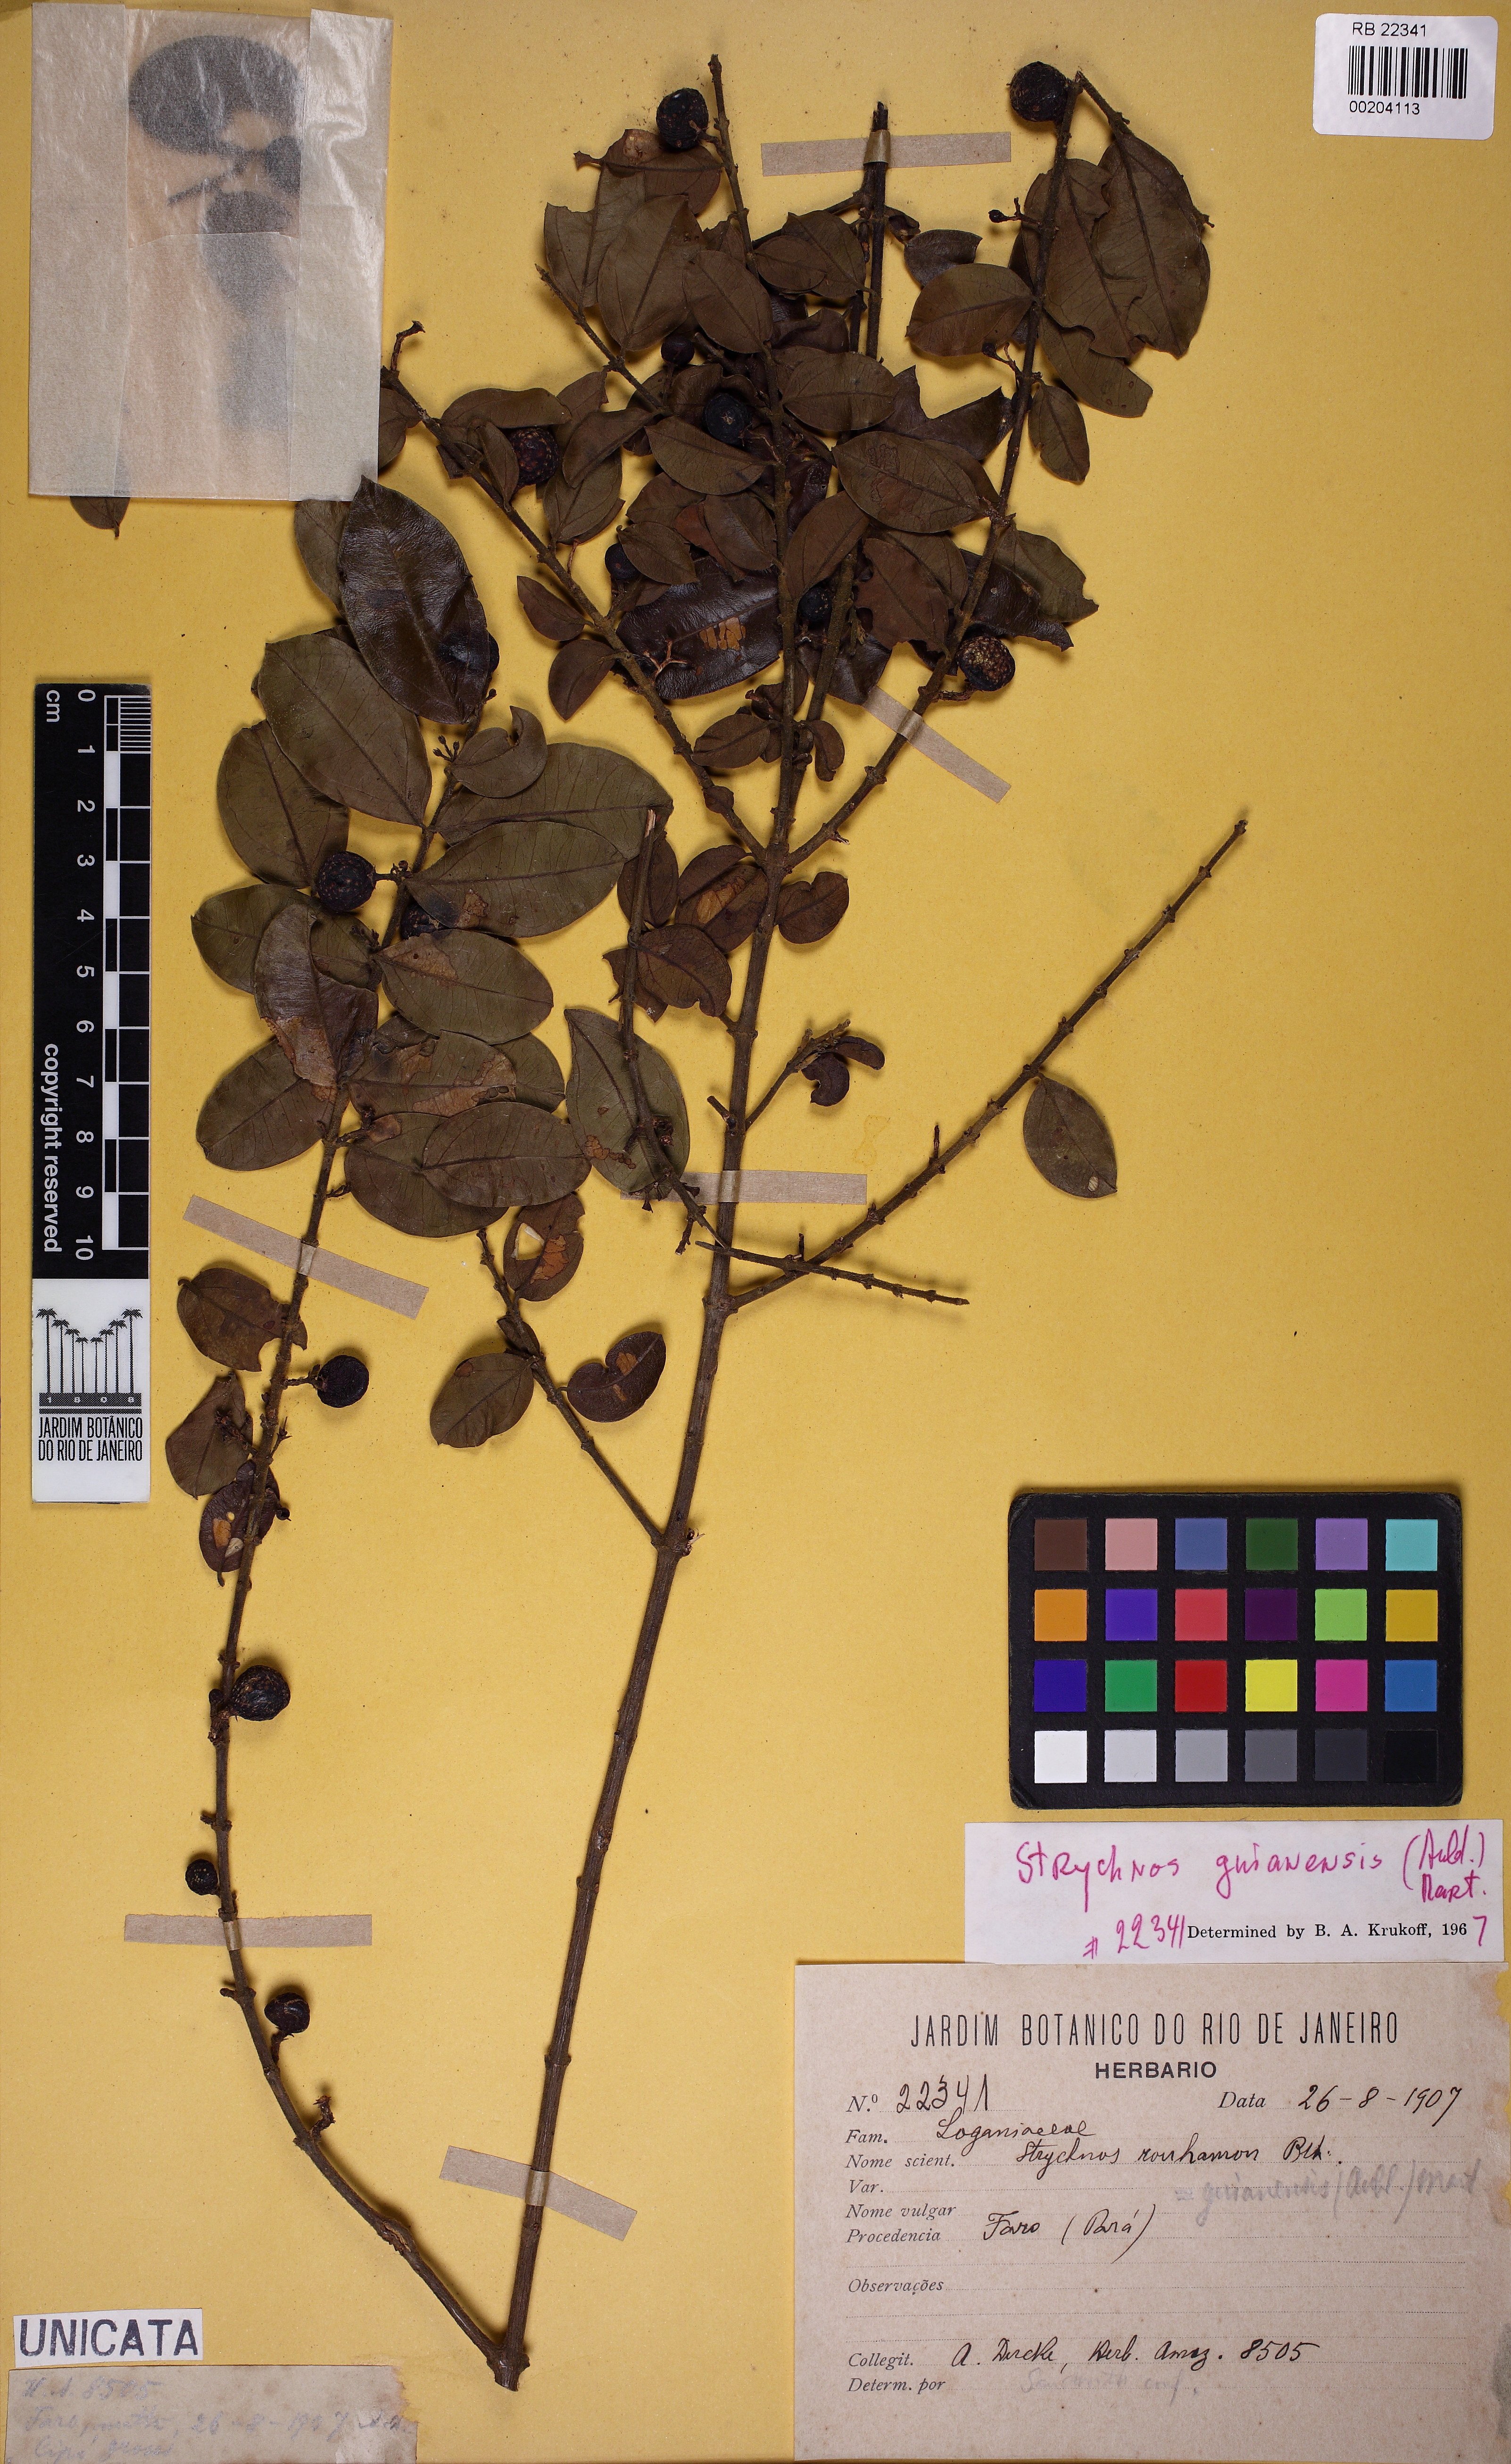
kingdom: Plantae
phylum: Tracheophyta
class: Magnoliopsida
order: Gentianales
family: Loganiaceae
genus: Strychnos
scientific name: Strychnos guianensis
